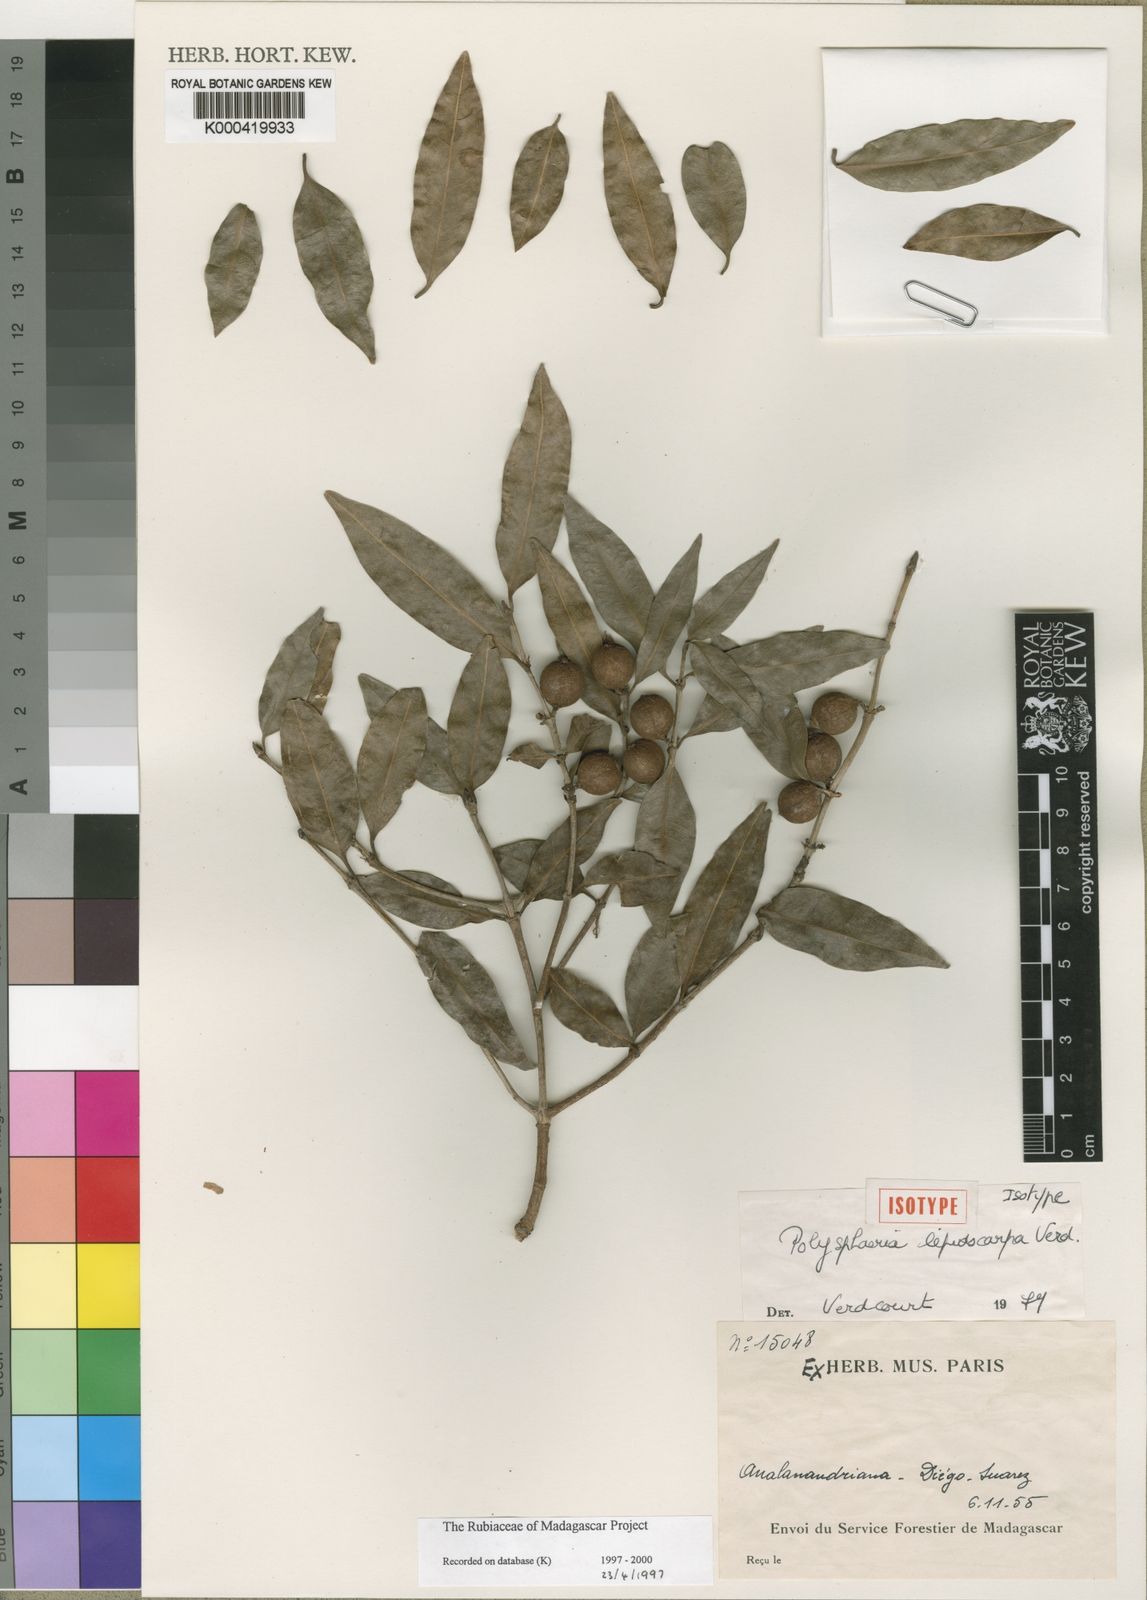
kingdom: Plantae
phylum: Tracheophyta
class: Magnoliopsida
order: Gentianales
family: Rubiaceae
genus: Polysphaeria
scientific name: Polysphaeria lepidocarpa
